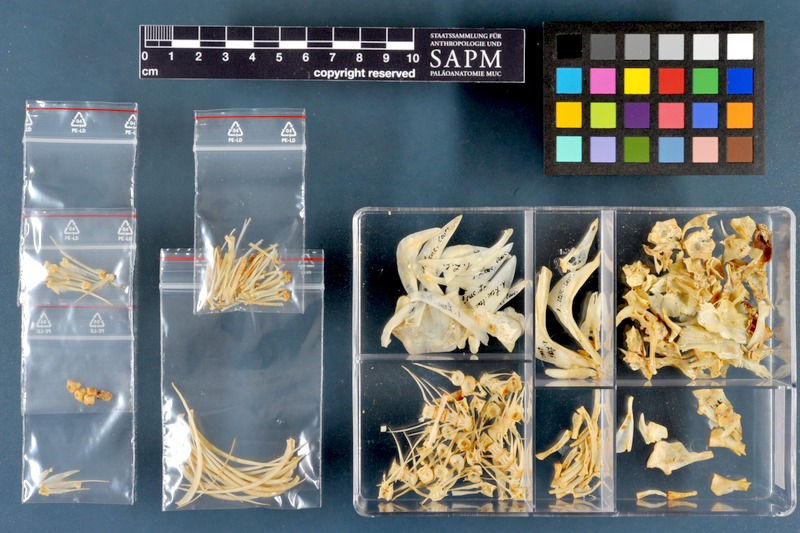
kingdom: Animalia
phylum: Chordata
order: Cypriniformes
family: Cyprinidae
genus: Squalius
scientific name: Squalius cephalus
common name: Chub
